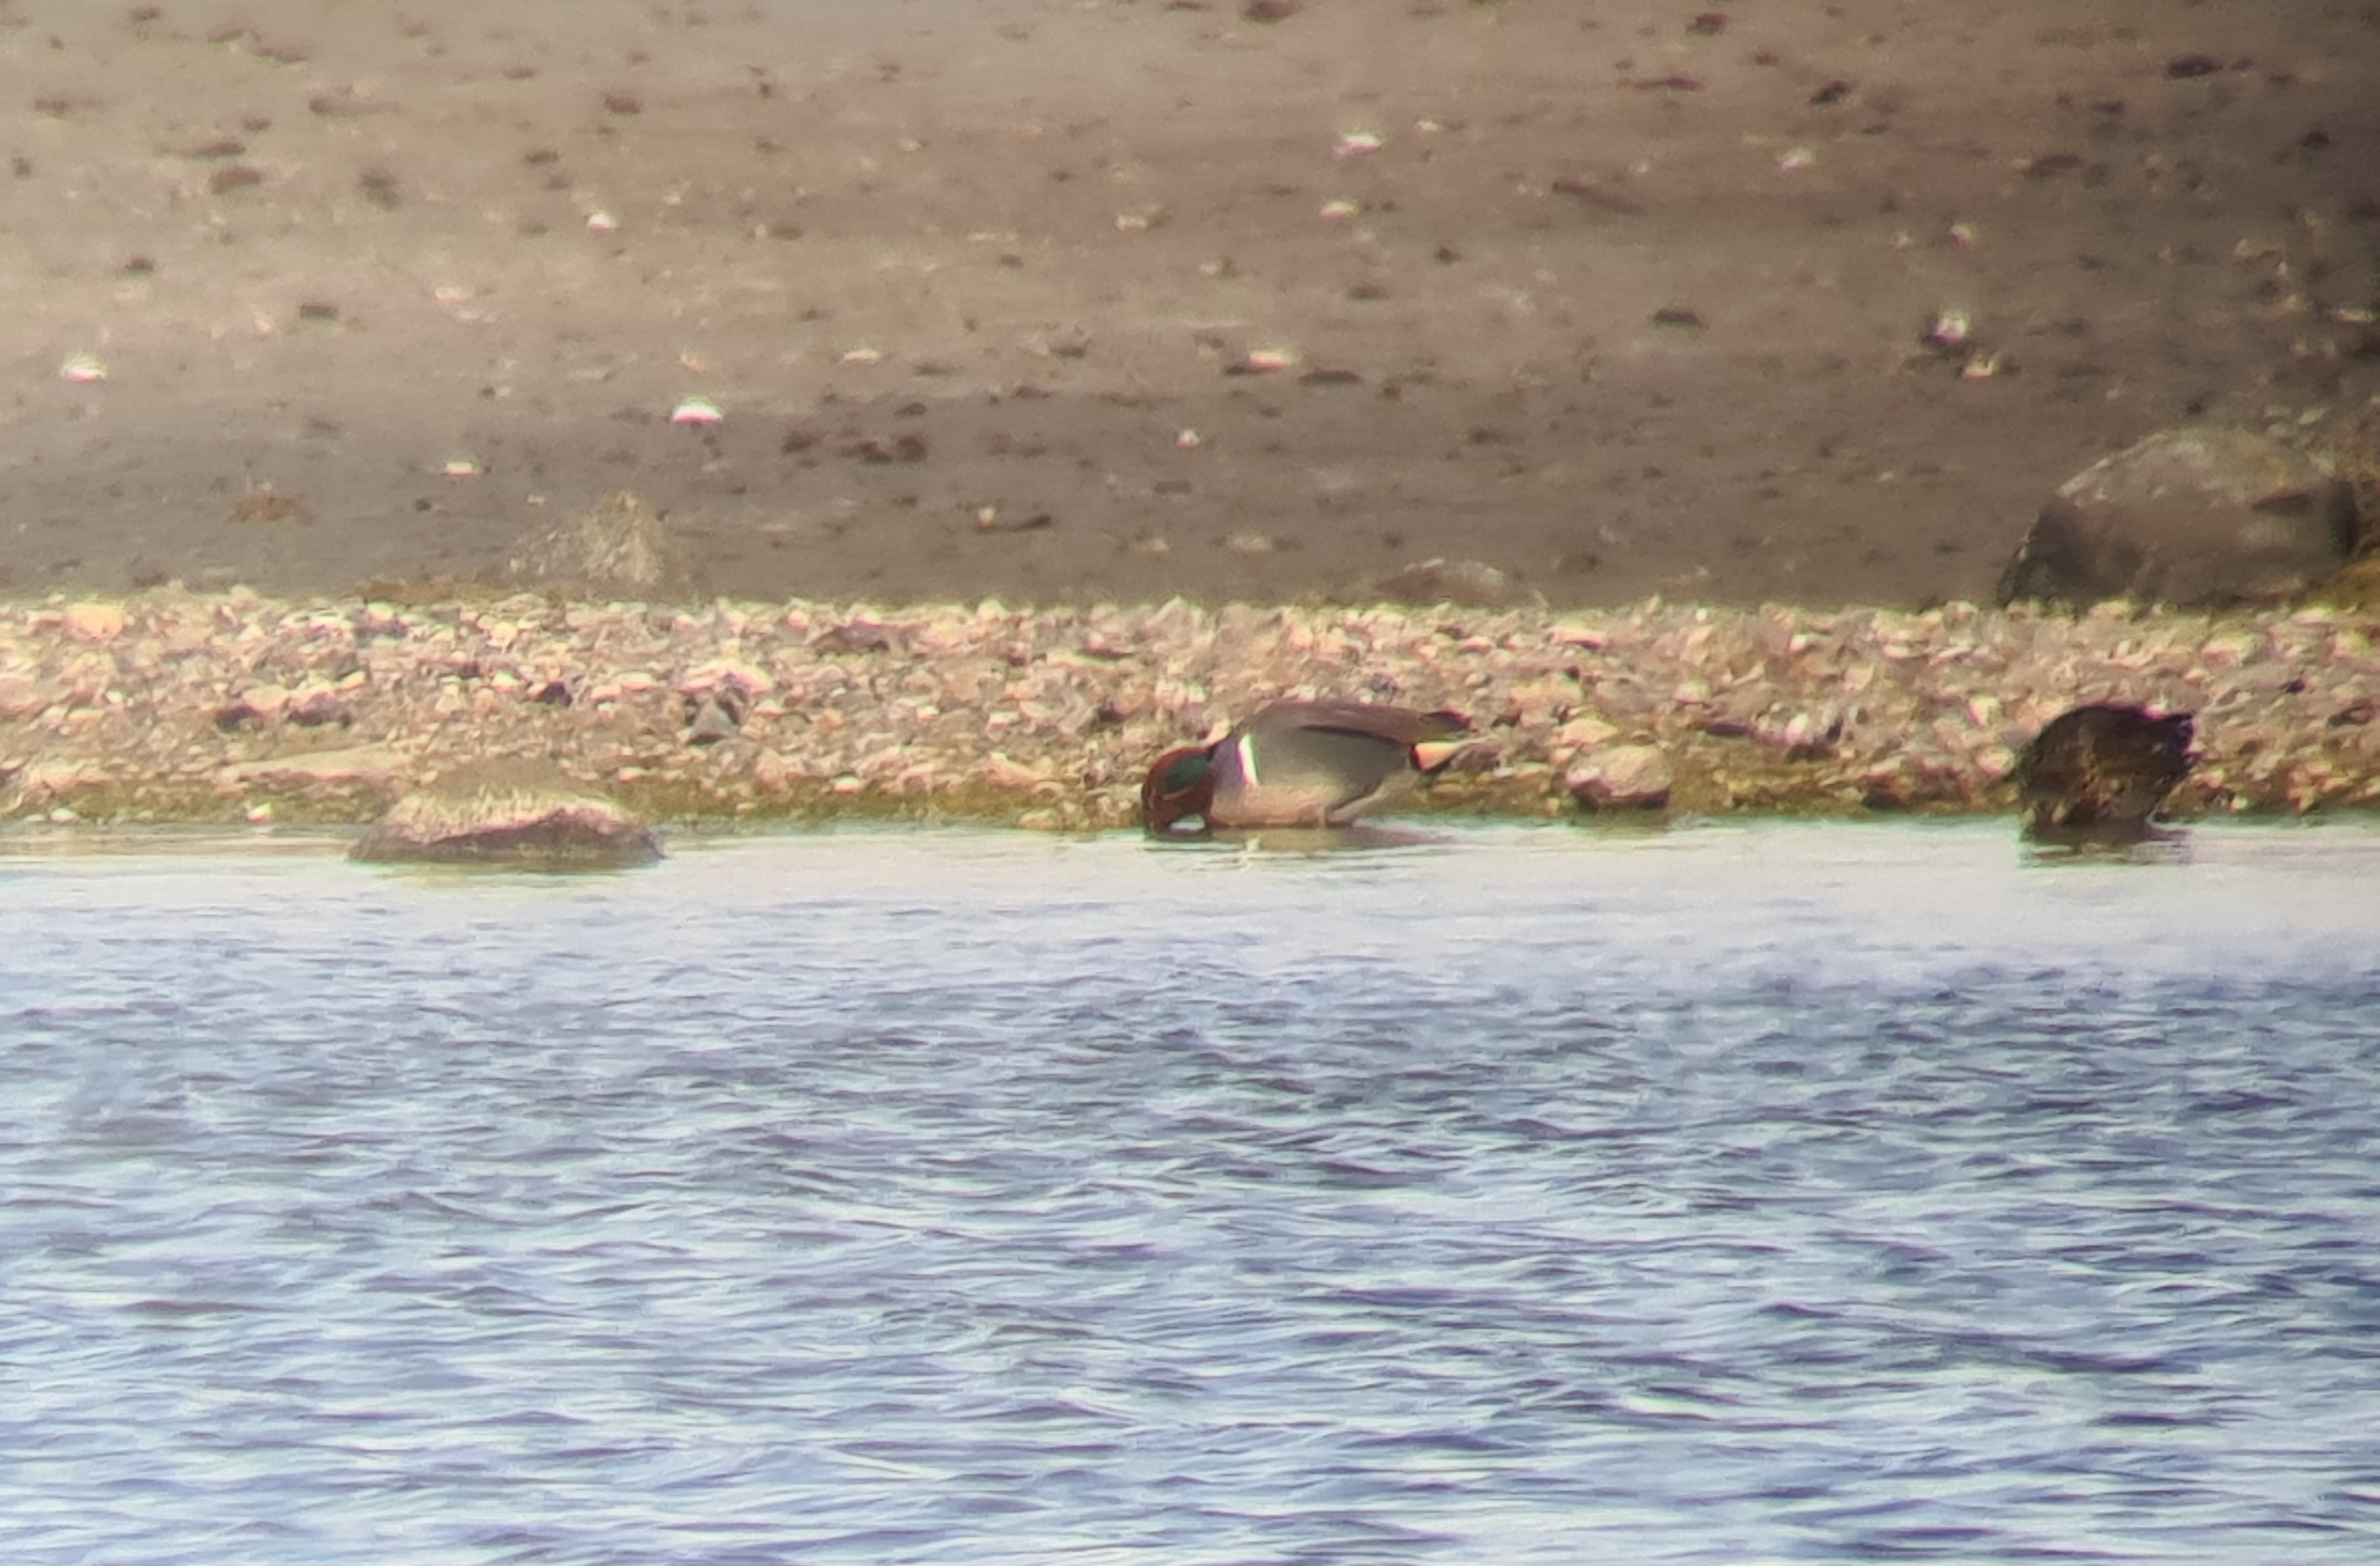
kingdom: Animalia
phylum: Chordata
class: Aves
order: Anseriformes
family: Anatidae
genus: Anas
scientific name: Anas carolinensis
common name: Amerikansk krikand
